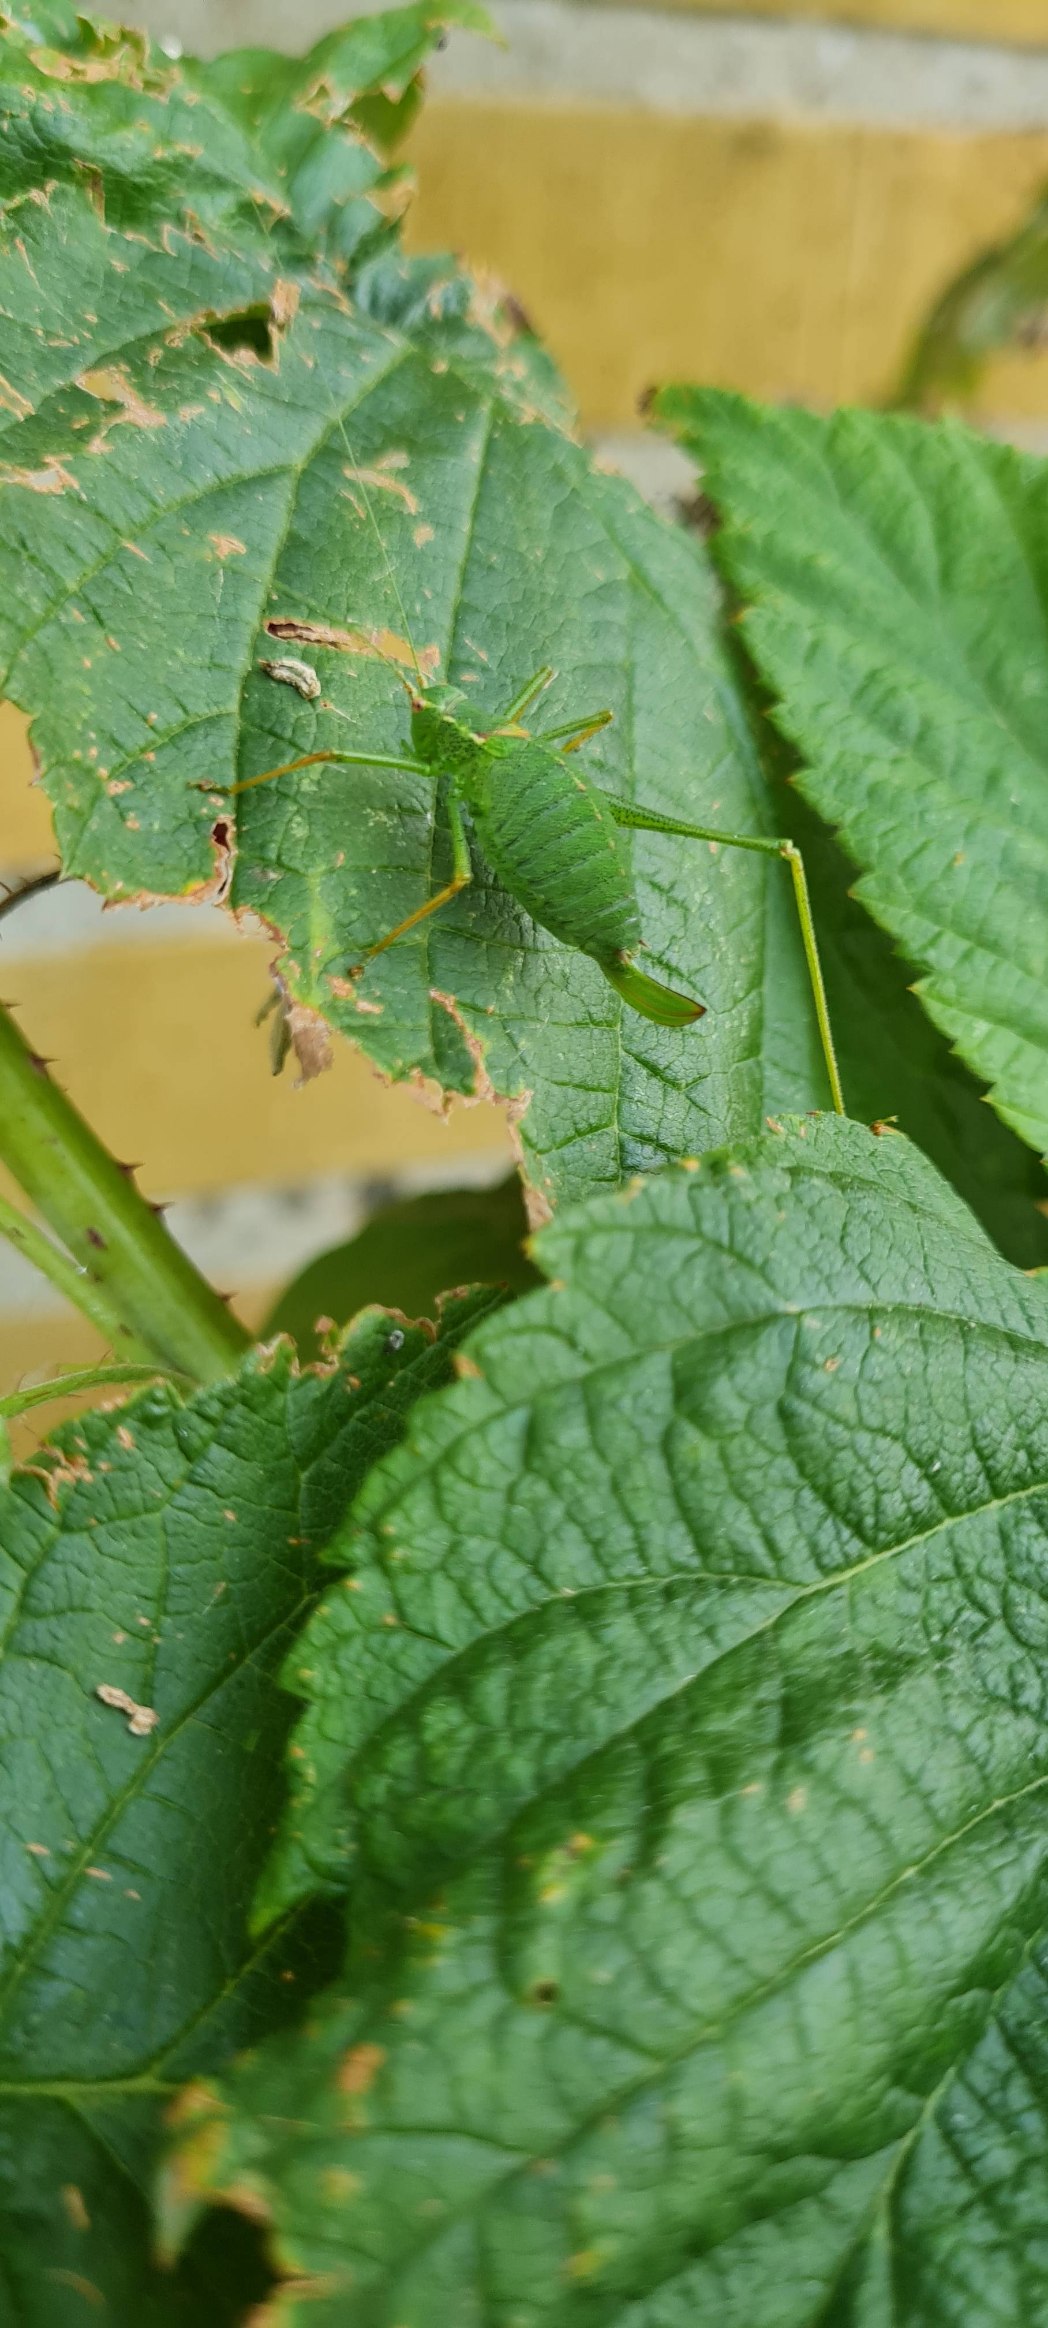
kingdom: Animalia
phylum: Arthropoda
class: Insecta
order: Orthoptera
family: Tettigoniidae
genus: Leptophyes
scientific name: Leptophyes punctatissima
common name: Krumknivgræshoppe
